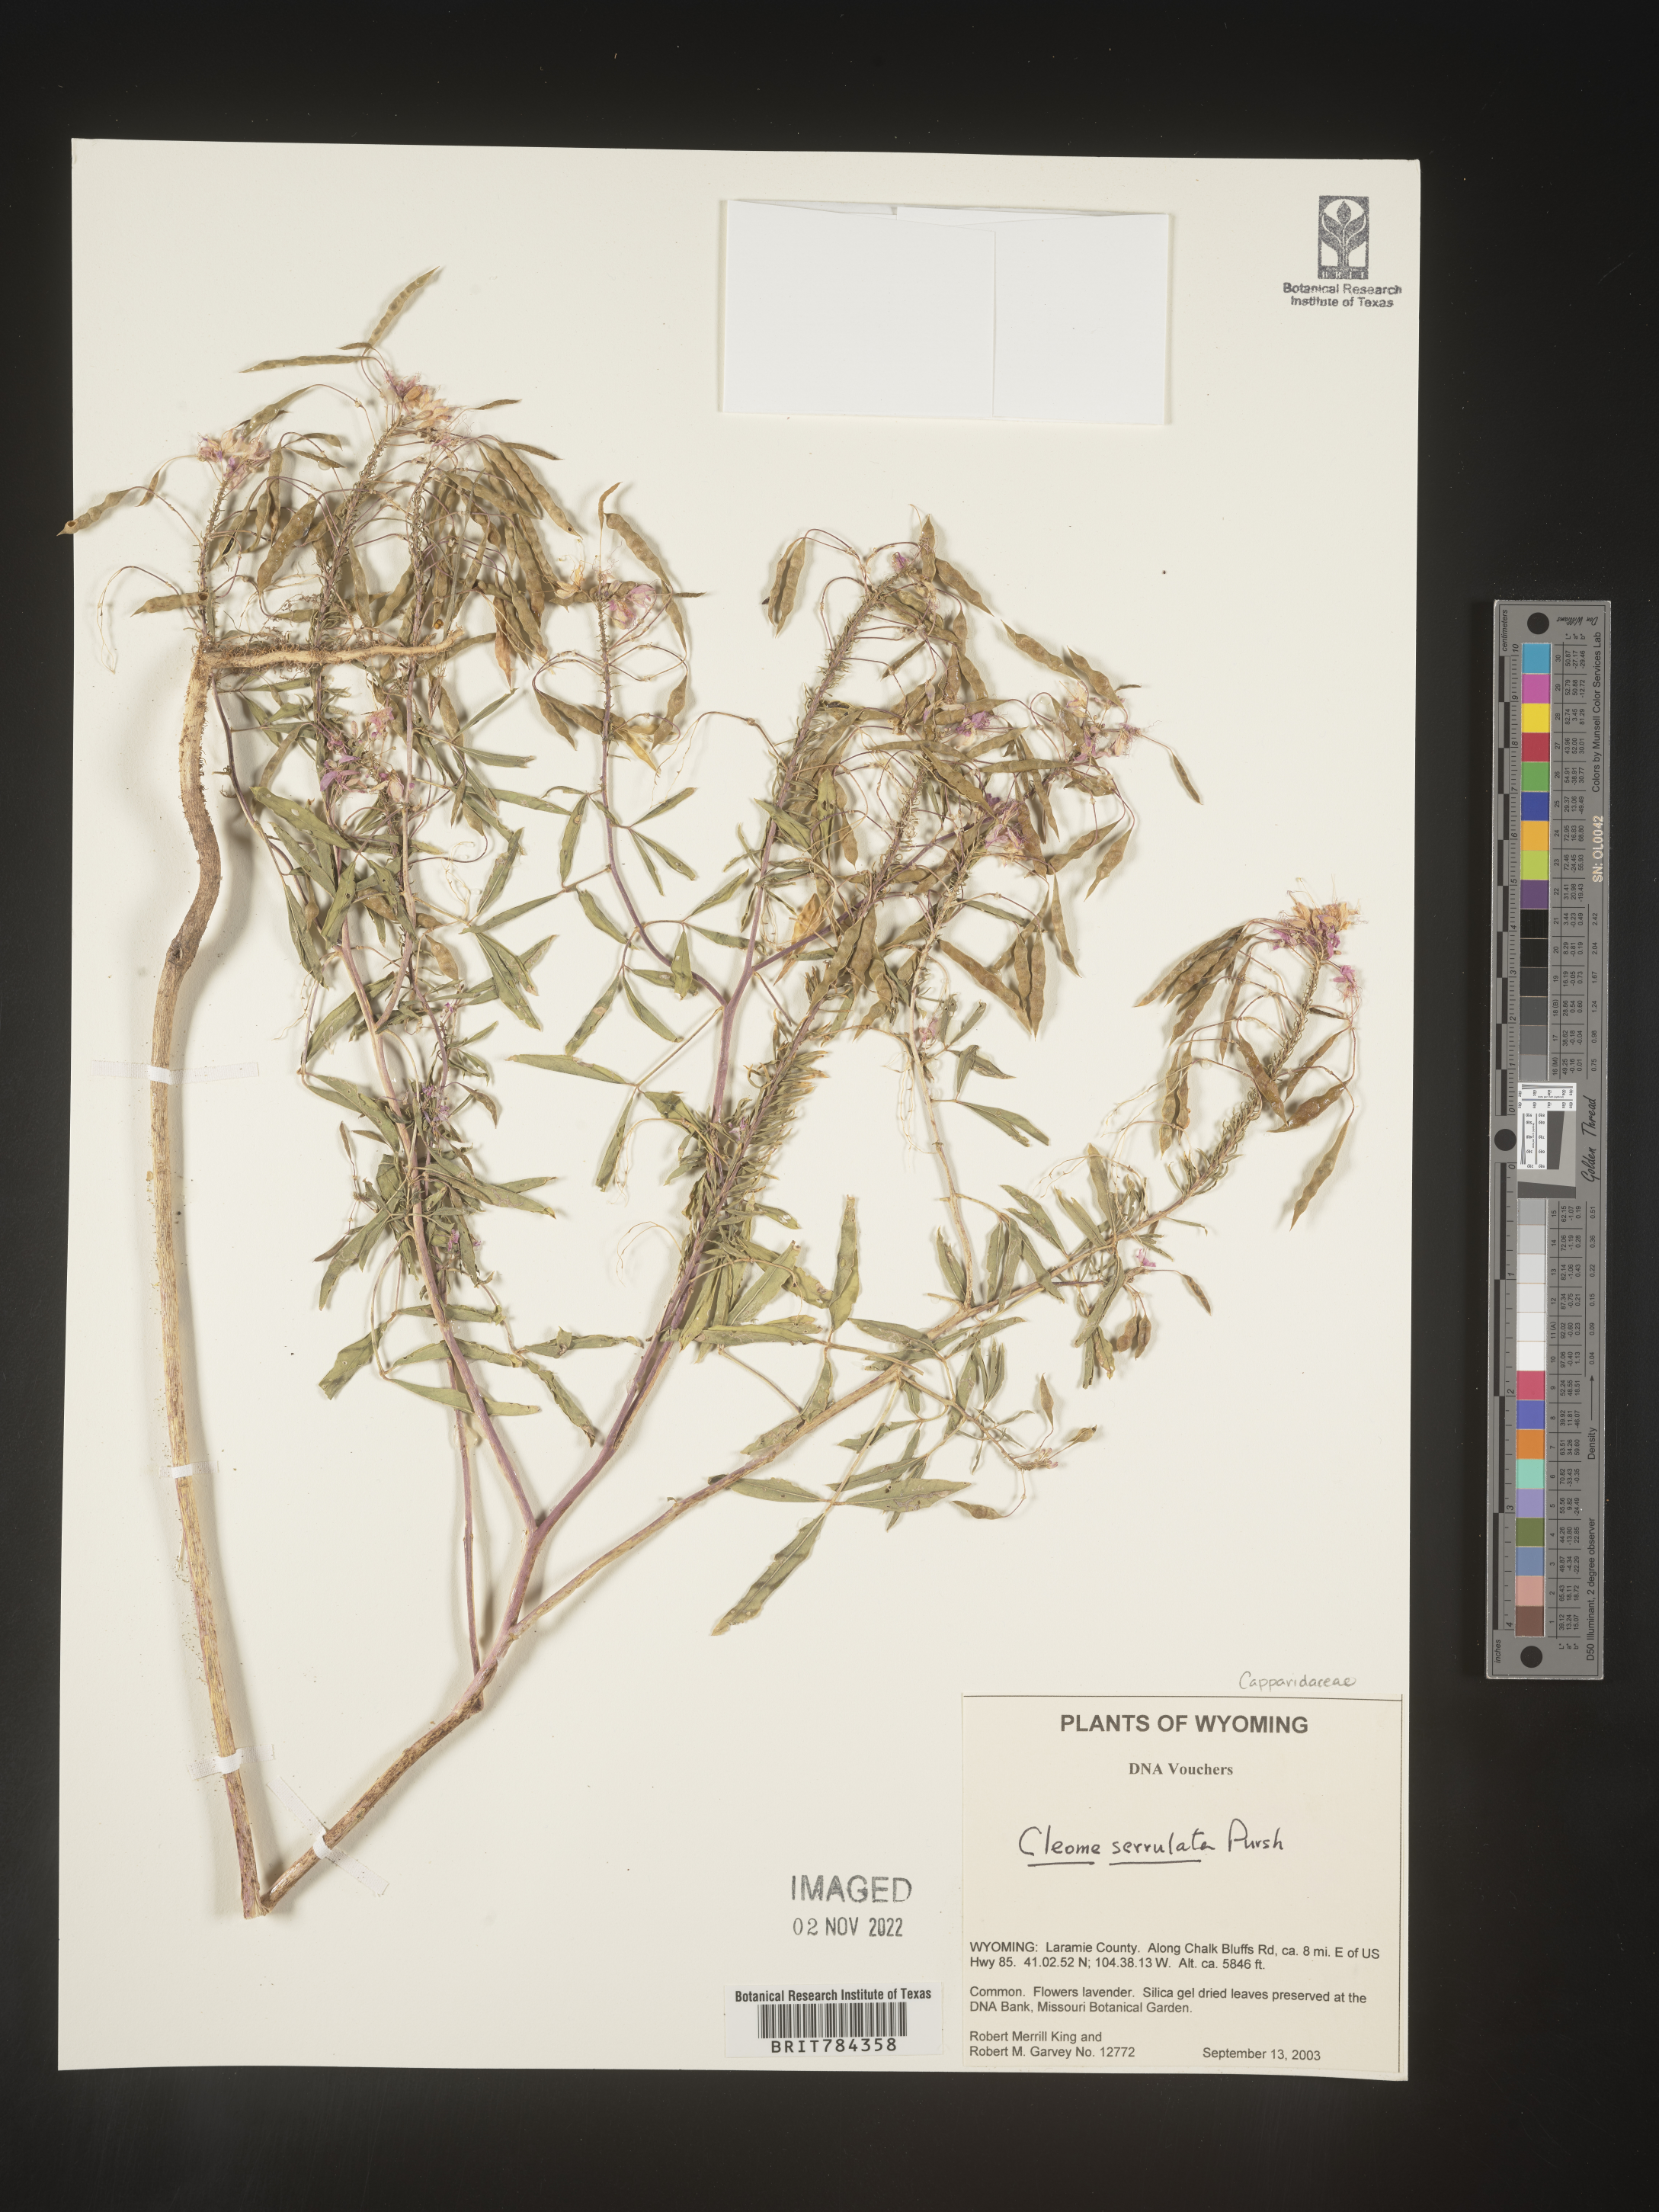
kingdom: Plantae
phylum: Tracheophyta
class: Magnoliopsida
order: Brassicales
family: Cleomaceae
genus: Cleomella
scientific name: Cleomella serrulata
